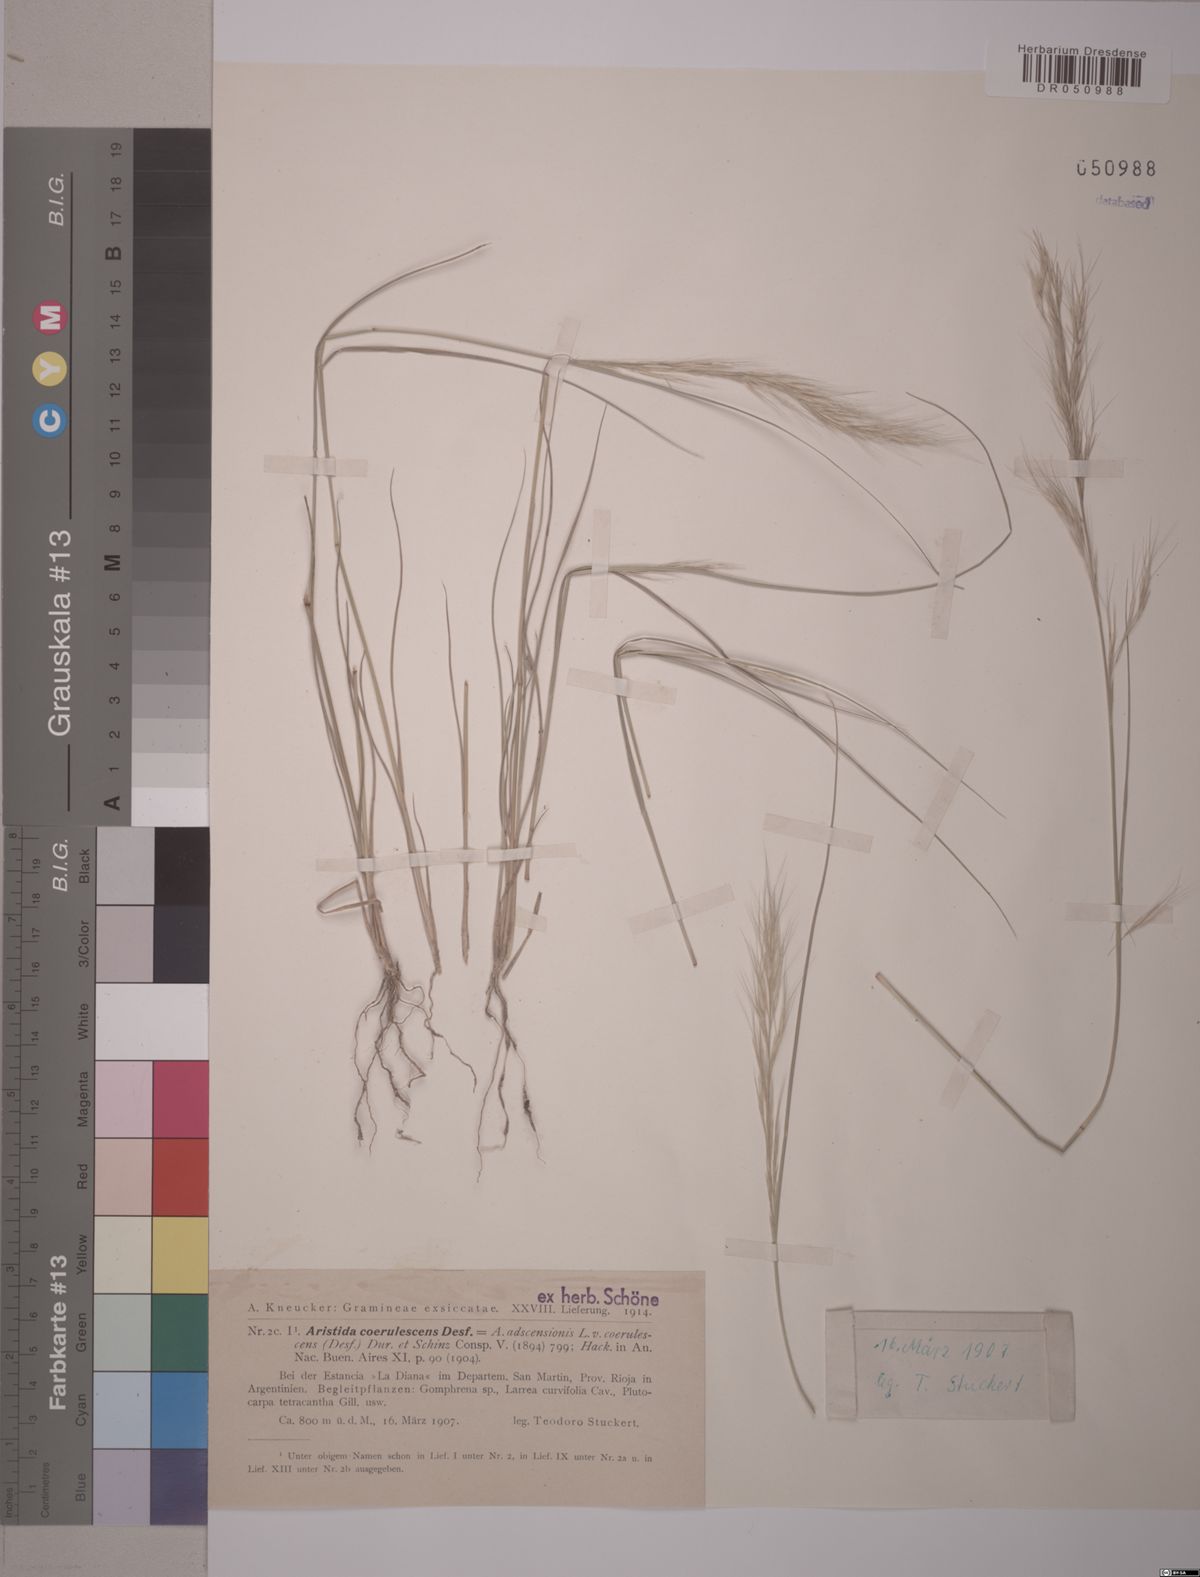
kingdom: Plantae
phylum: Tracheophyta
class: Liliopsida
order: Poales
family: Poaceae
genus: Aristida
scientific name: Aristida adscensionis
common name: Sixweeks threeawn
